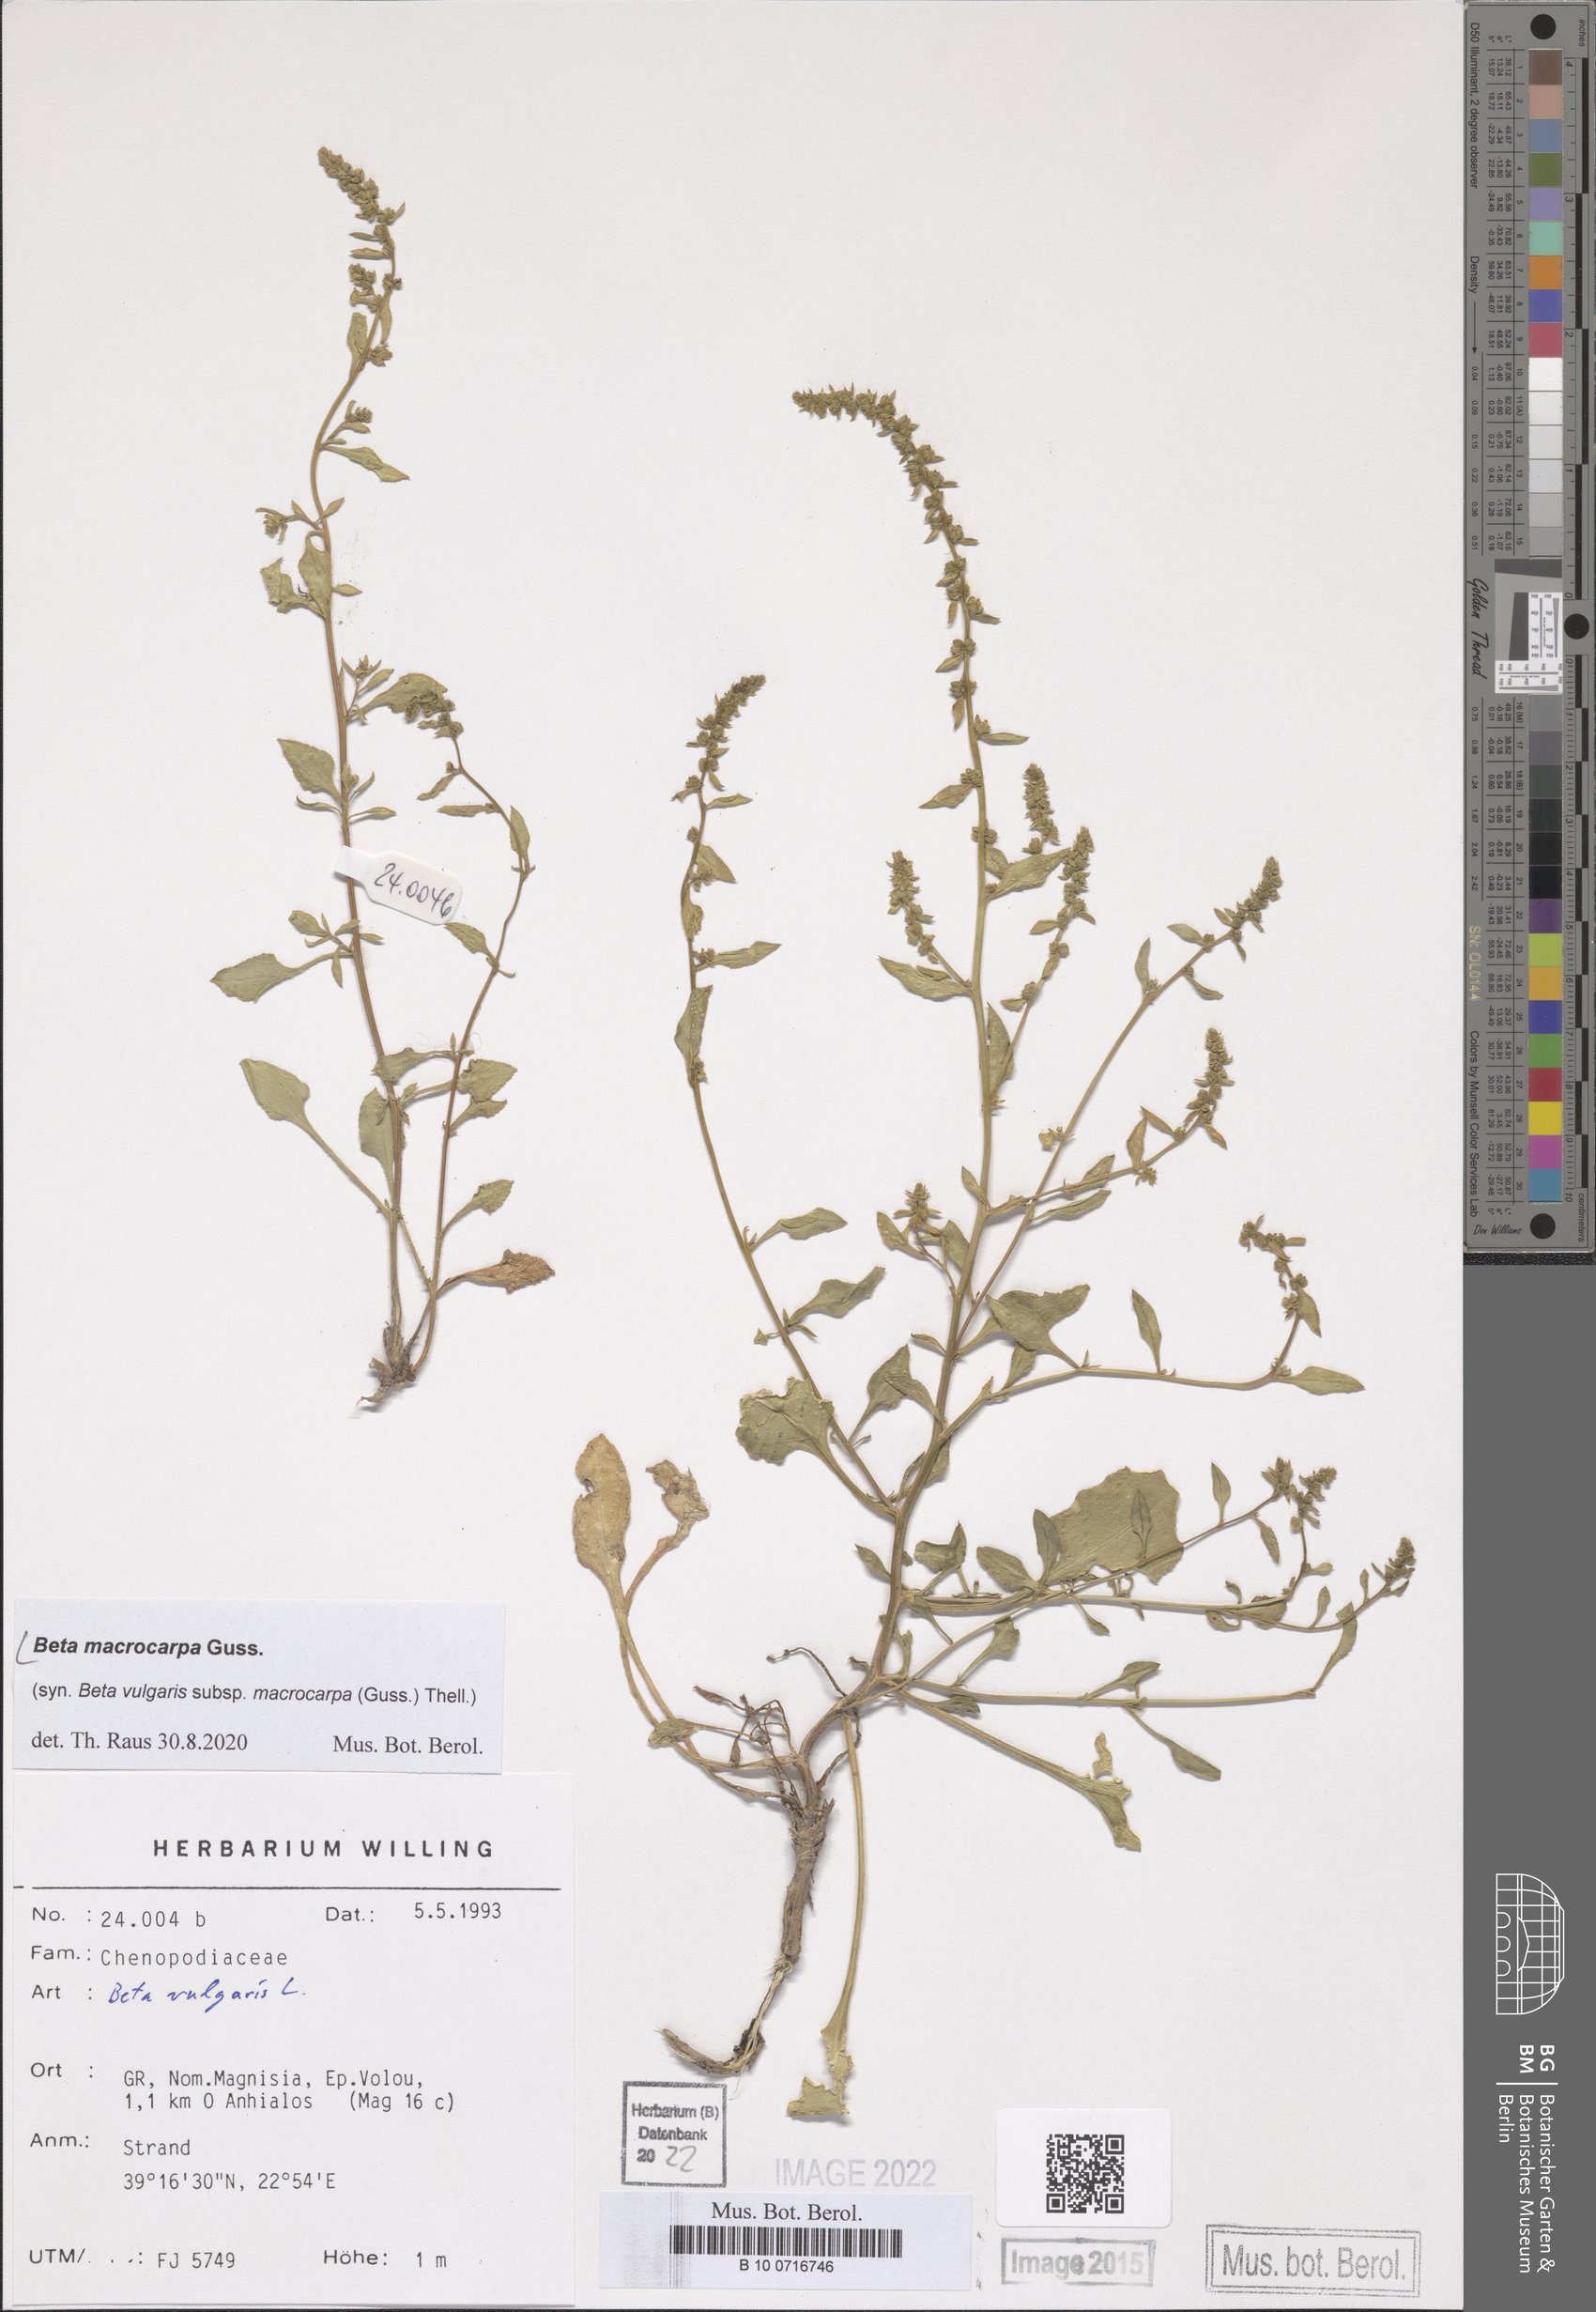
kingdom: Plantae
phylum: Tracheophyta
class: Magnoliopsida
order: Caryophyllales
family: Amaranthaceae
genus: Beta
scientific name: Beta macrocarpa
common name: Beet
